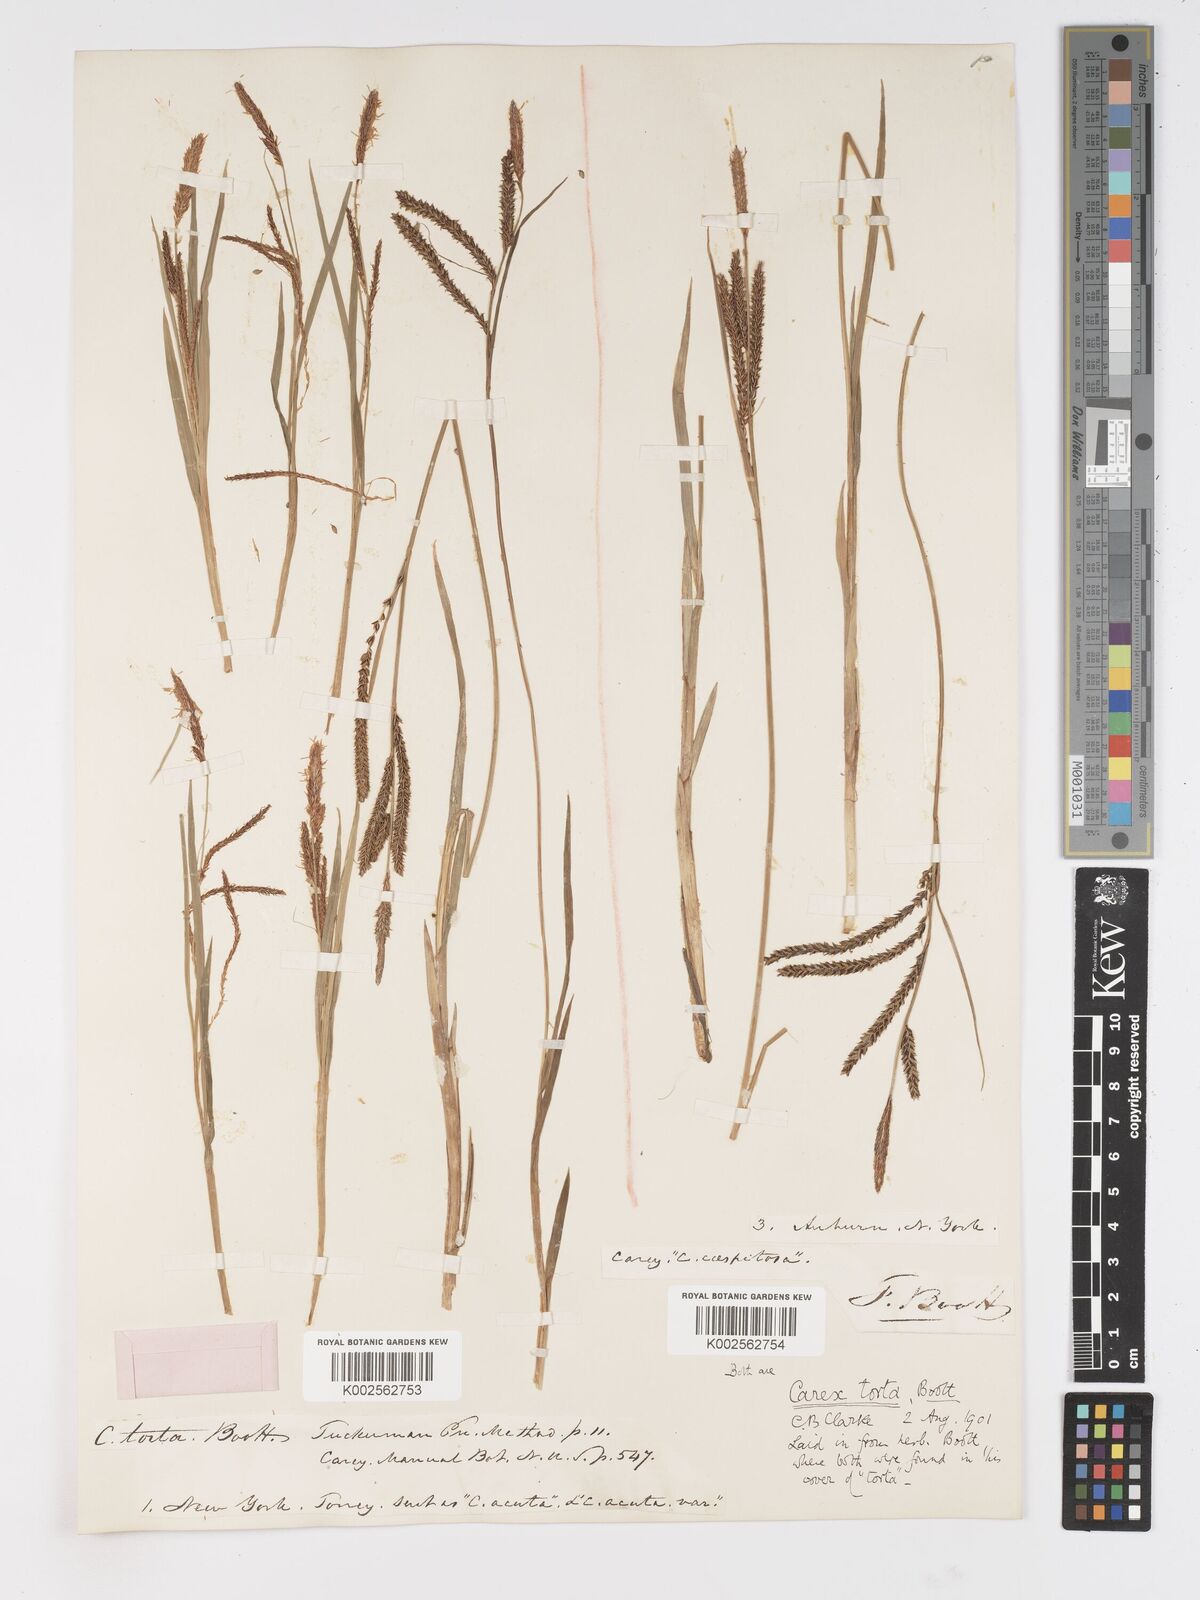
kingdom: Plantae
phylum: Tracheophyta
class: Liliopsida
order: Poales
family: Cyperaceae
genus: Carex
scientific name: Carex torta
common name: Twisted sedge
